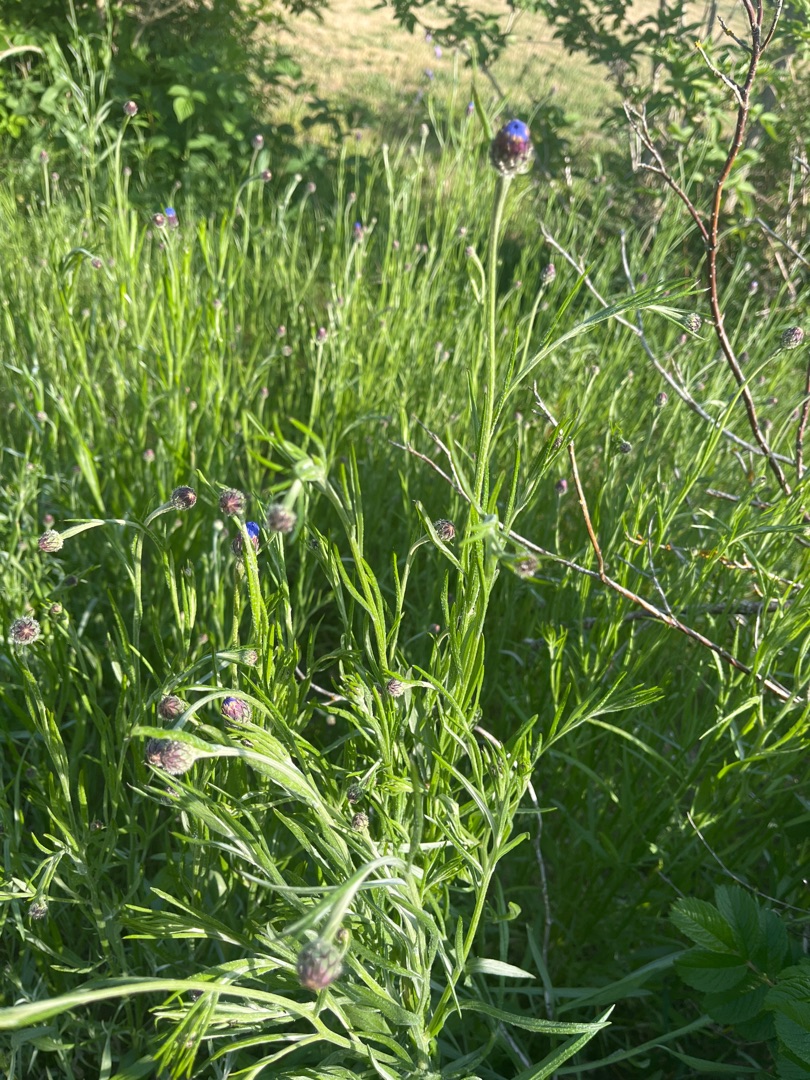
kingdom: Plantae
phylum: Tracheophyta
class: Magnoliopsida
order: Asterales
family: Asteraceae
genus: Centaurea
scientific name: Centaurea cyanus
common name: Kornblomst
